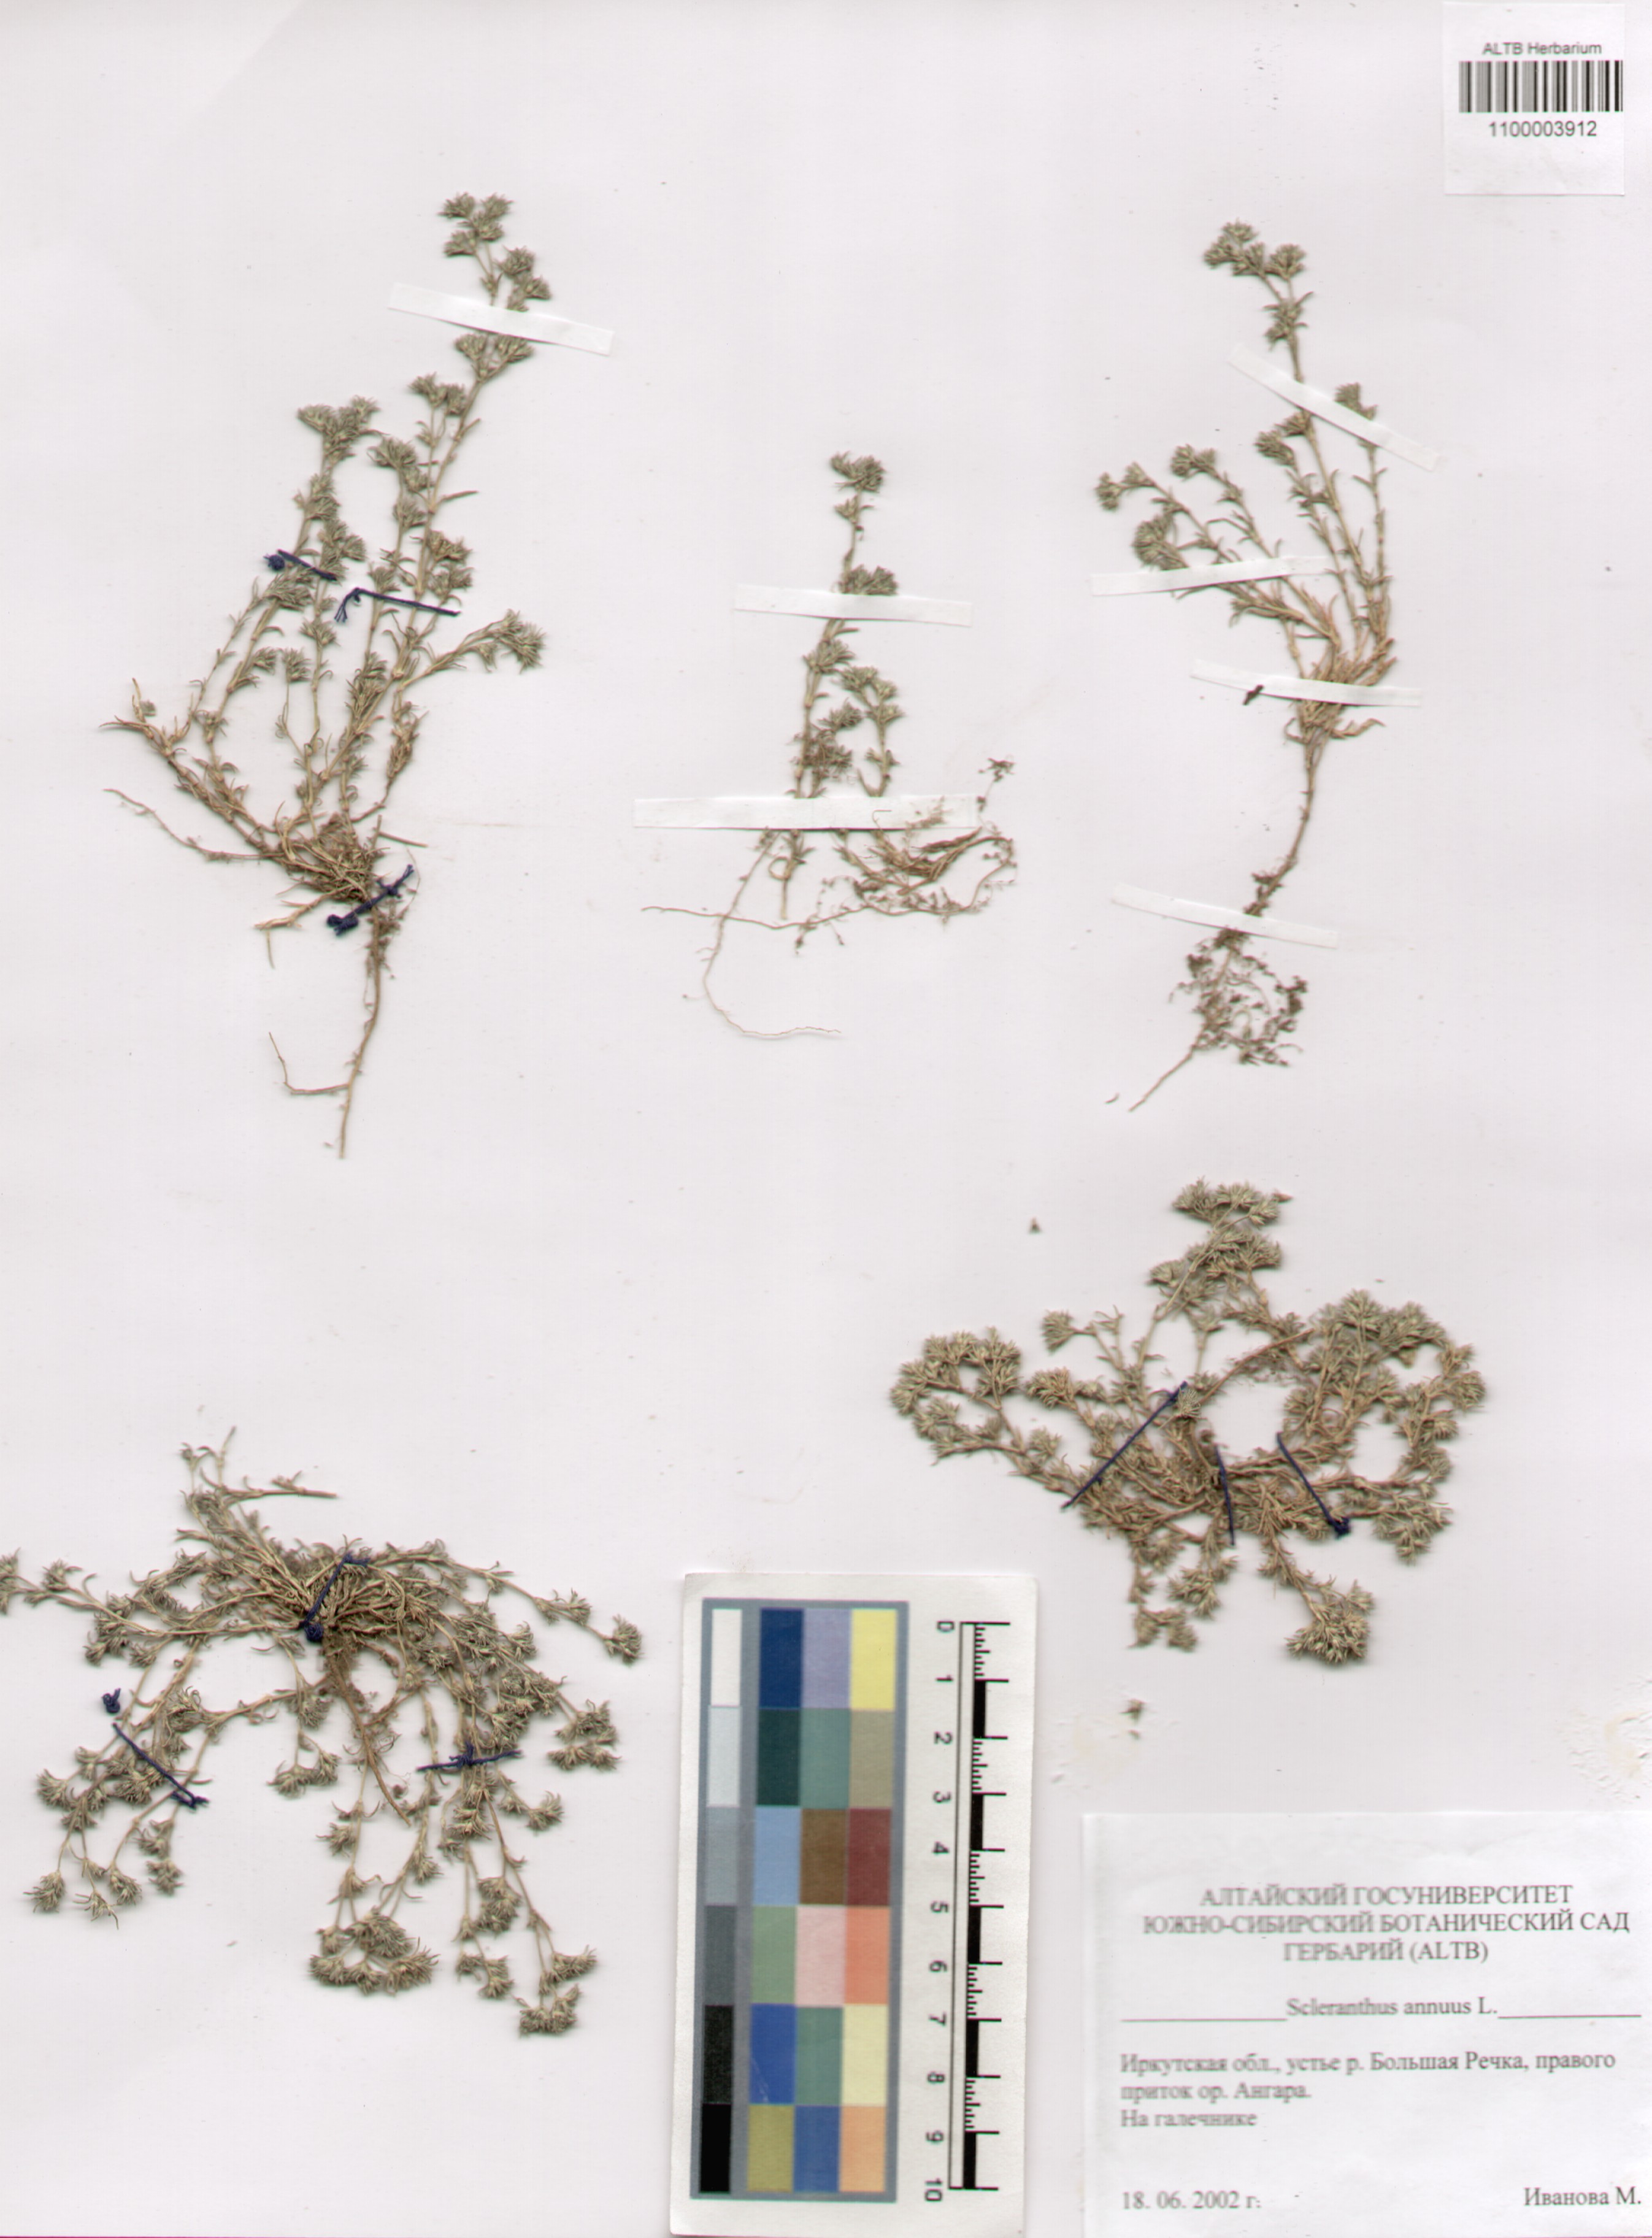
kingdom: Plantae
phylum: Tracheophyta
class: Magnoliopsida
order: Caryophyllales
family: Caryophyllaceae
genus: Scleranthus
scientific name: Scleranthus annuus
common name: Annual knawel
